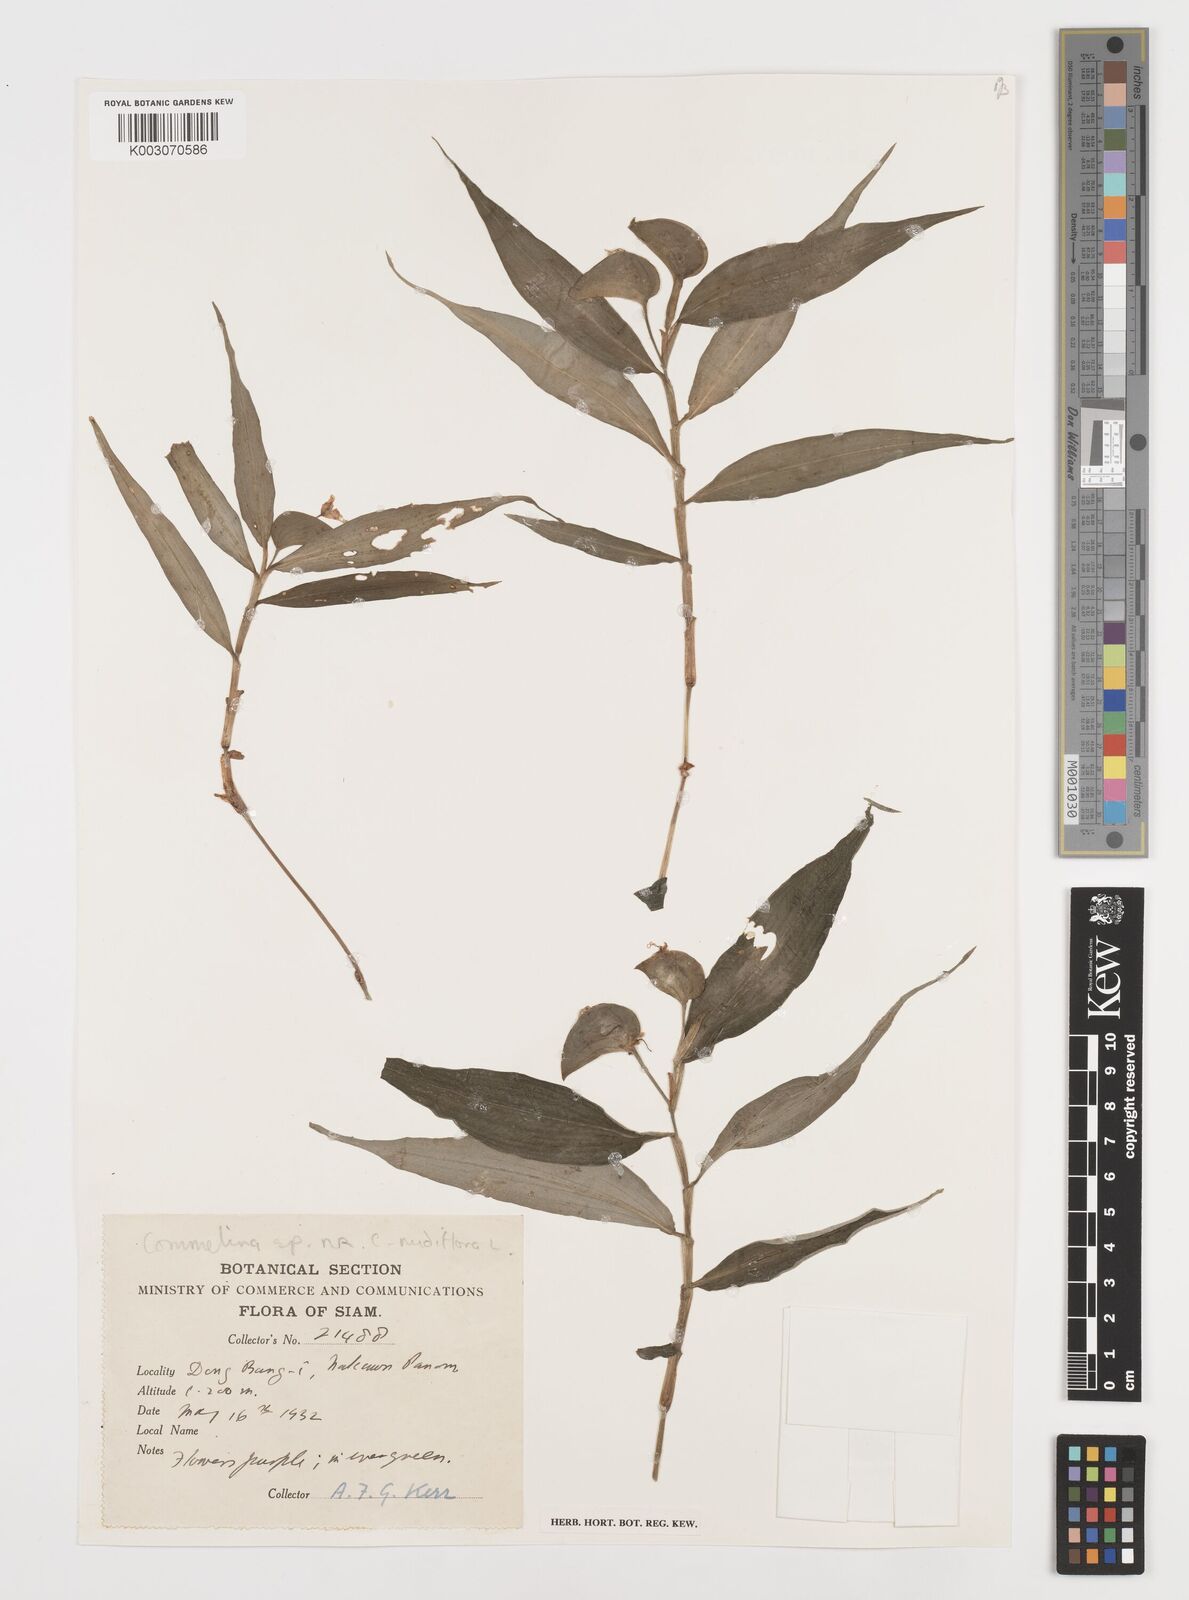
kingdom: Plantae
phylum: Tracheophyta
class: Liliopsida
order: Commelinales
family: Commelinaceae
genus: Commelina
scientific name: Commelina clavata
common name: Willow leaved dayflower
